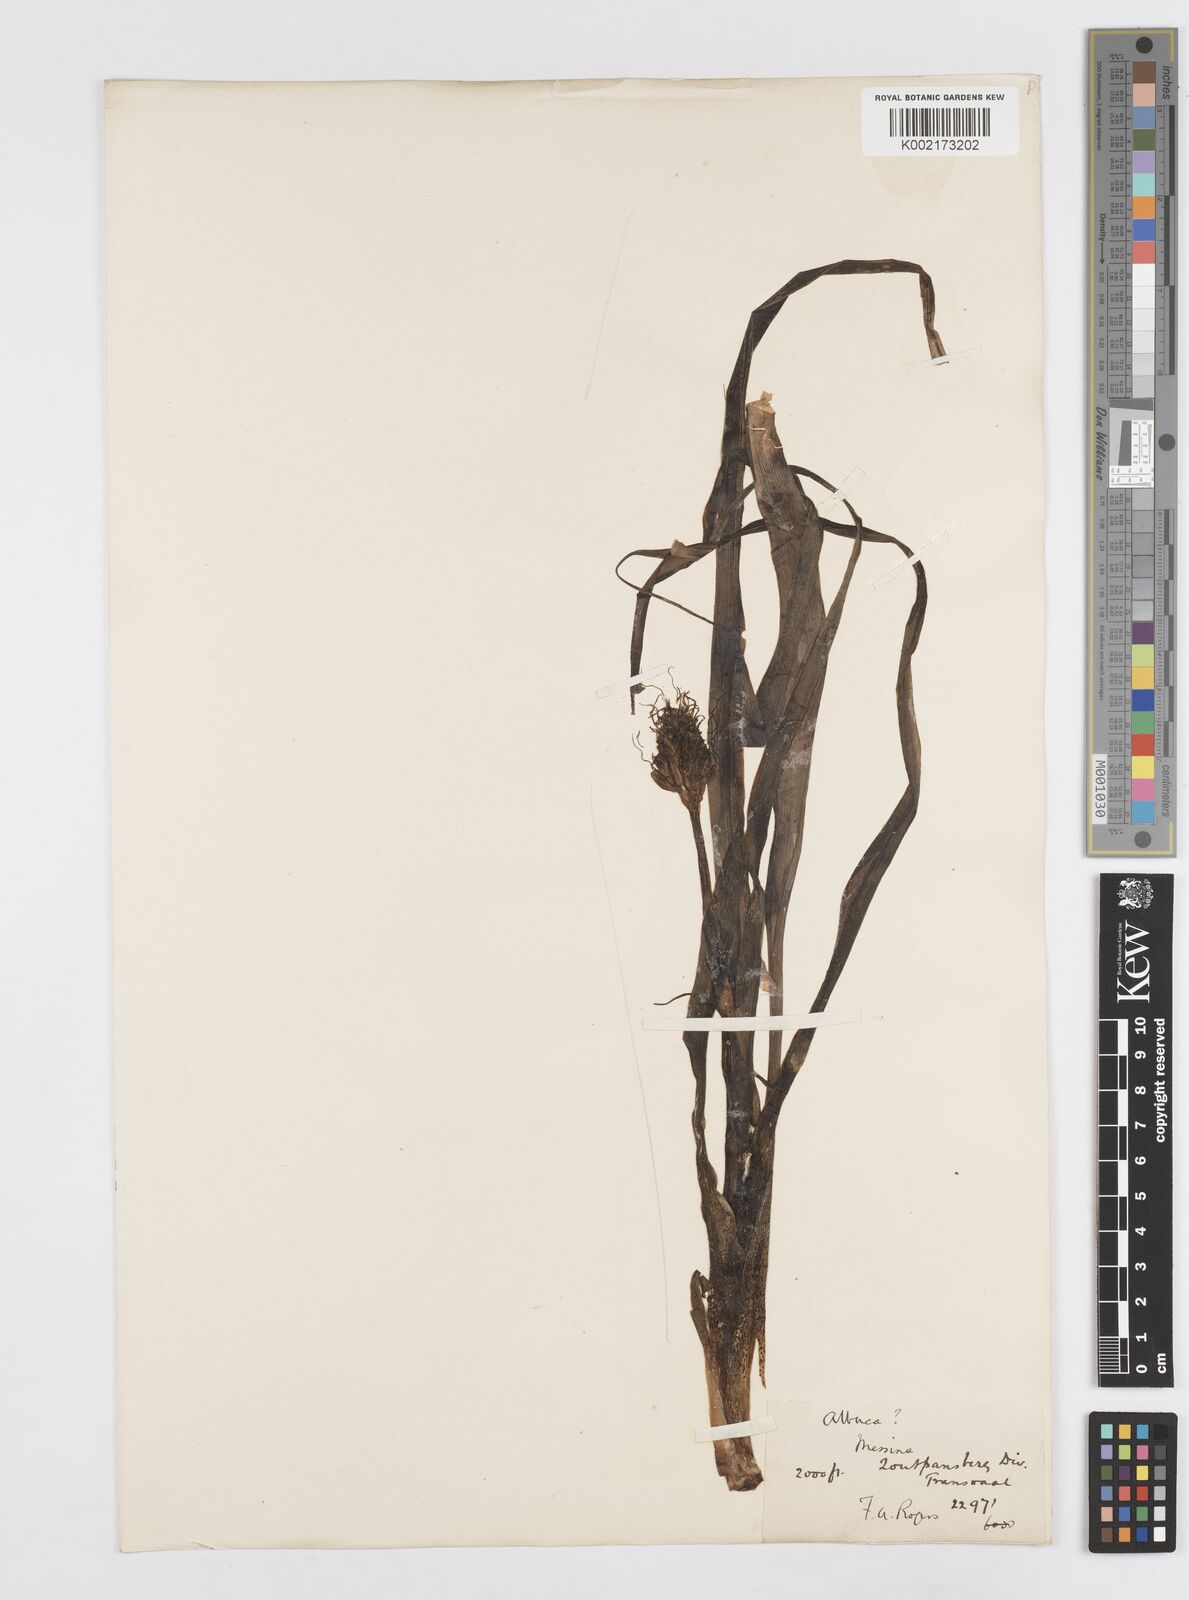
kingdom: Plantae
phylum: Tracheophyta
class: Liliopsida
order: Asparagales
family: Asparagaceae
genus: Albuca
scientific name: Albuca
